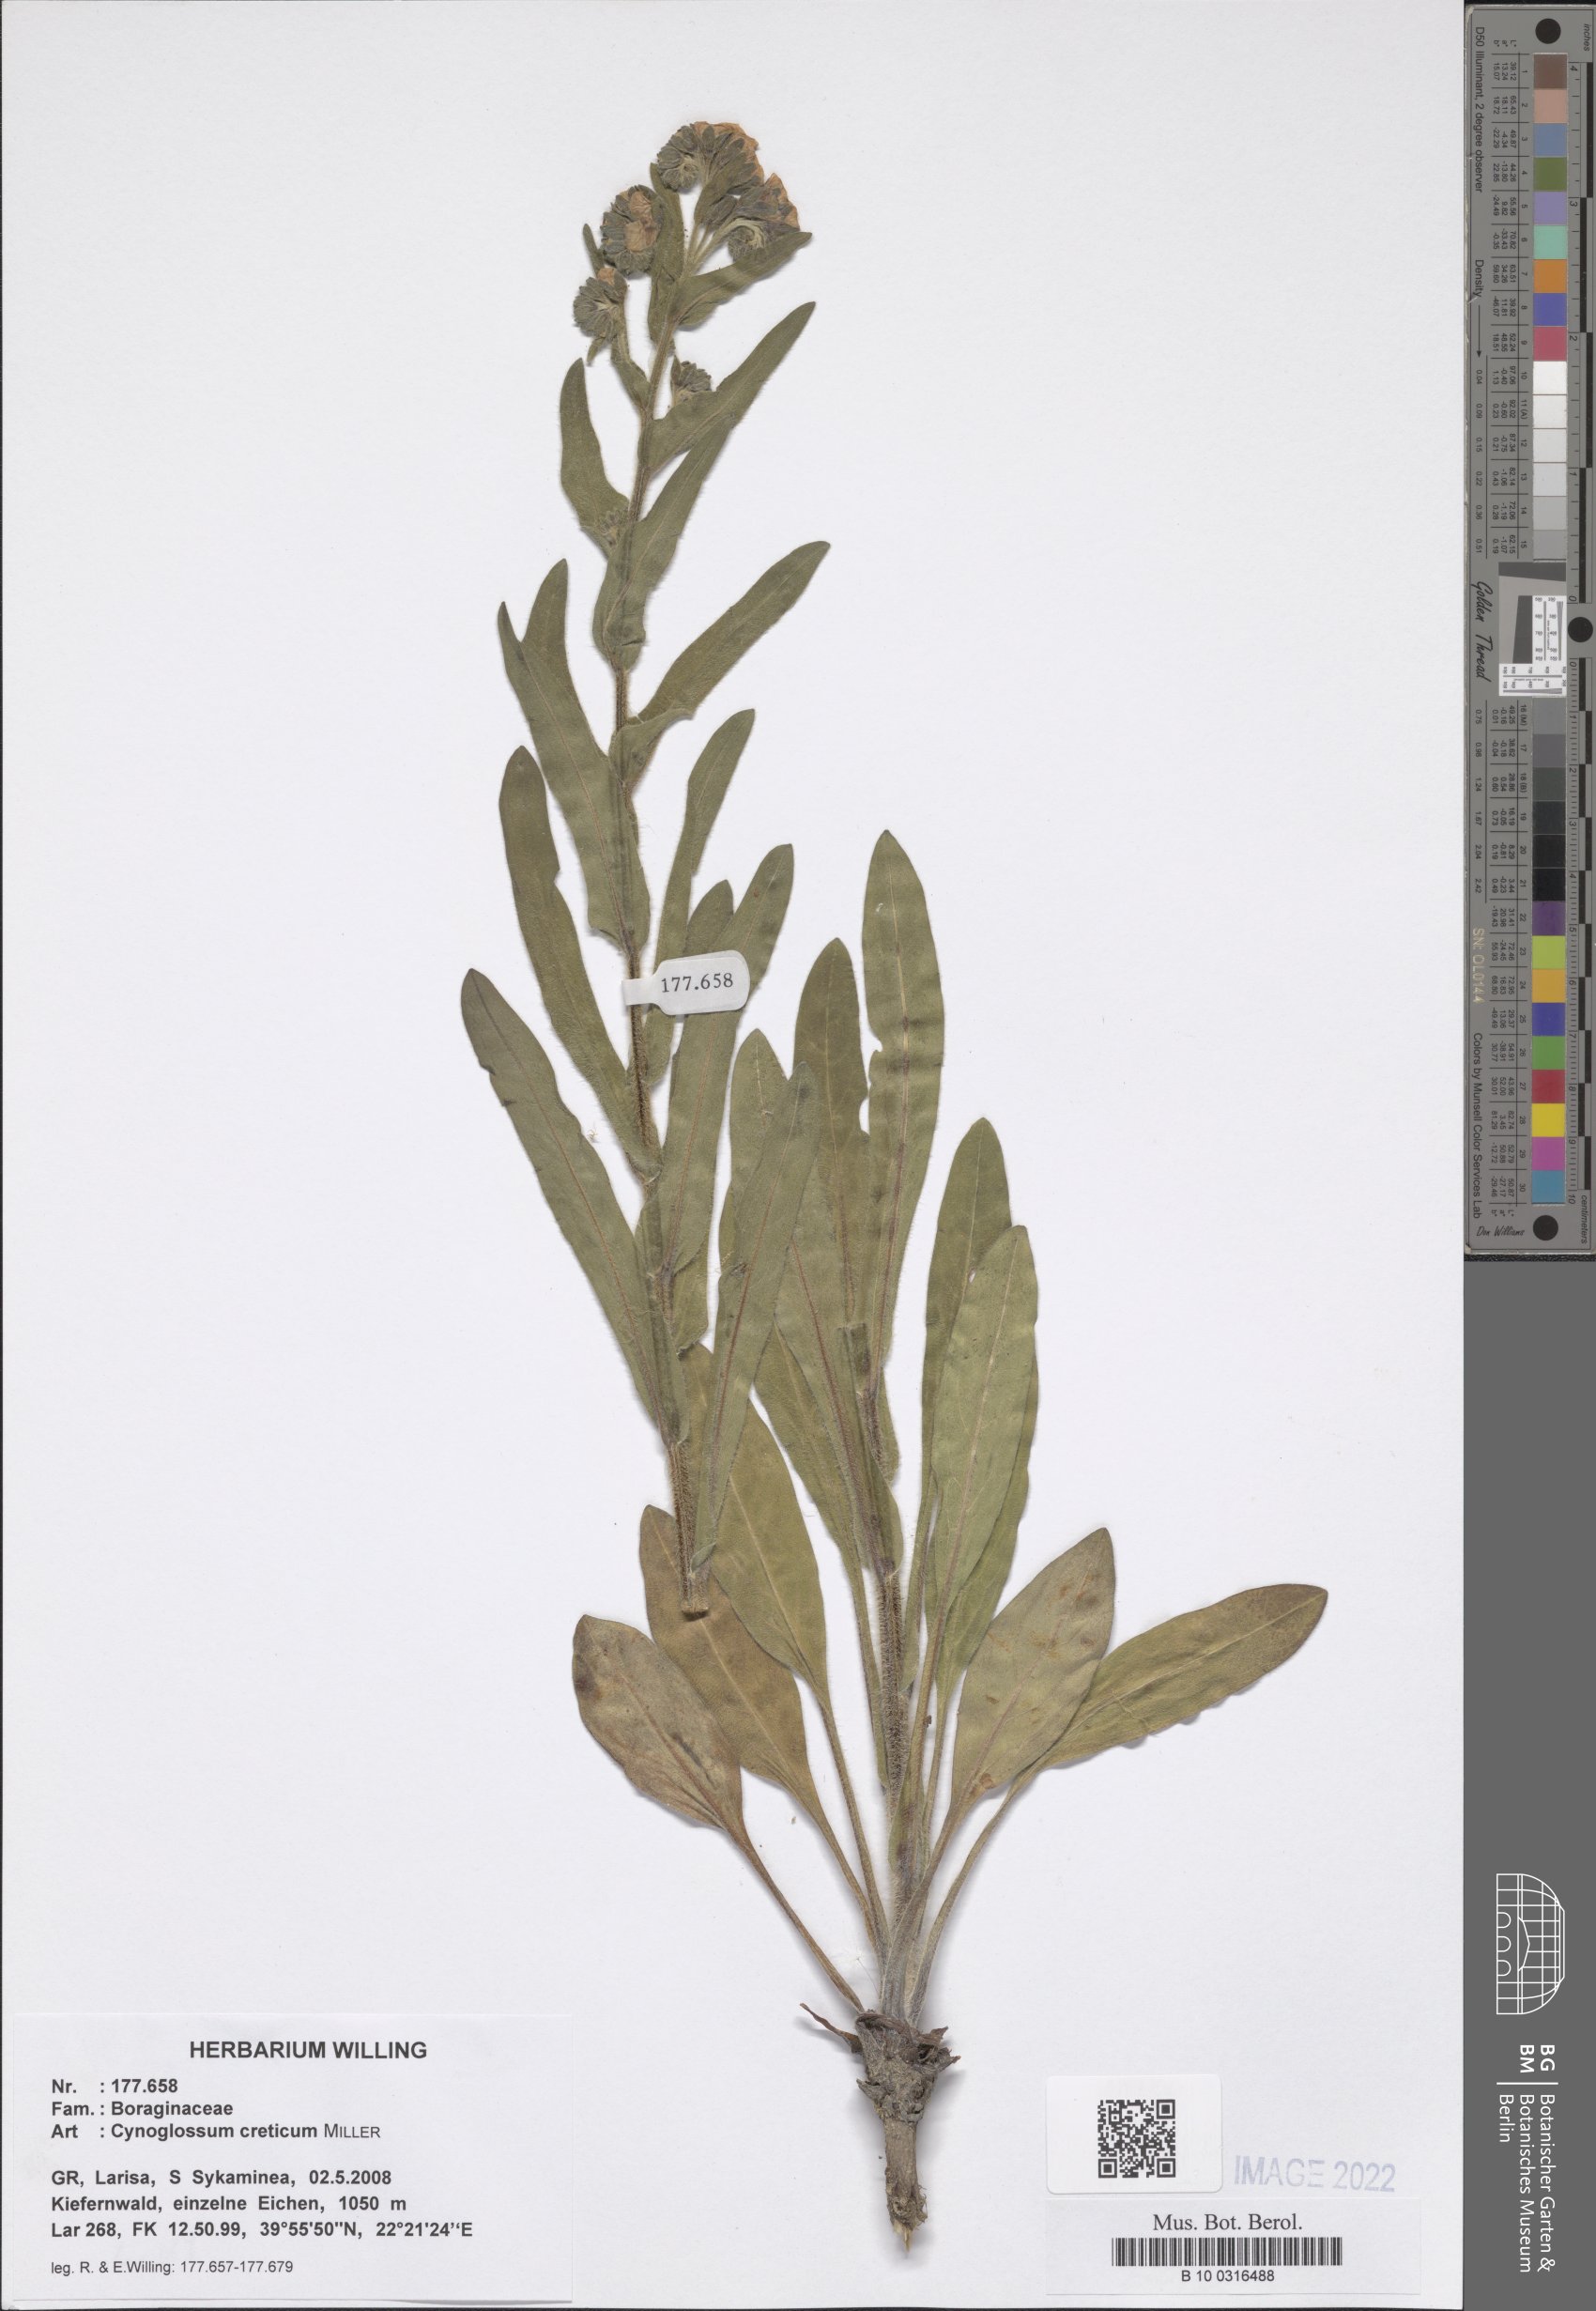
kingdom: Plantae
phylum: Tracheophyta
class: Magnoliopsida
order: Boraginales
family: Boraginaceae
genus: Cynoglossum
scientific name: Cynoglossum creticum
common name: Blue hound's tongue
